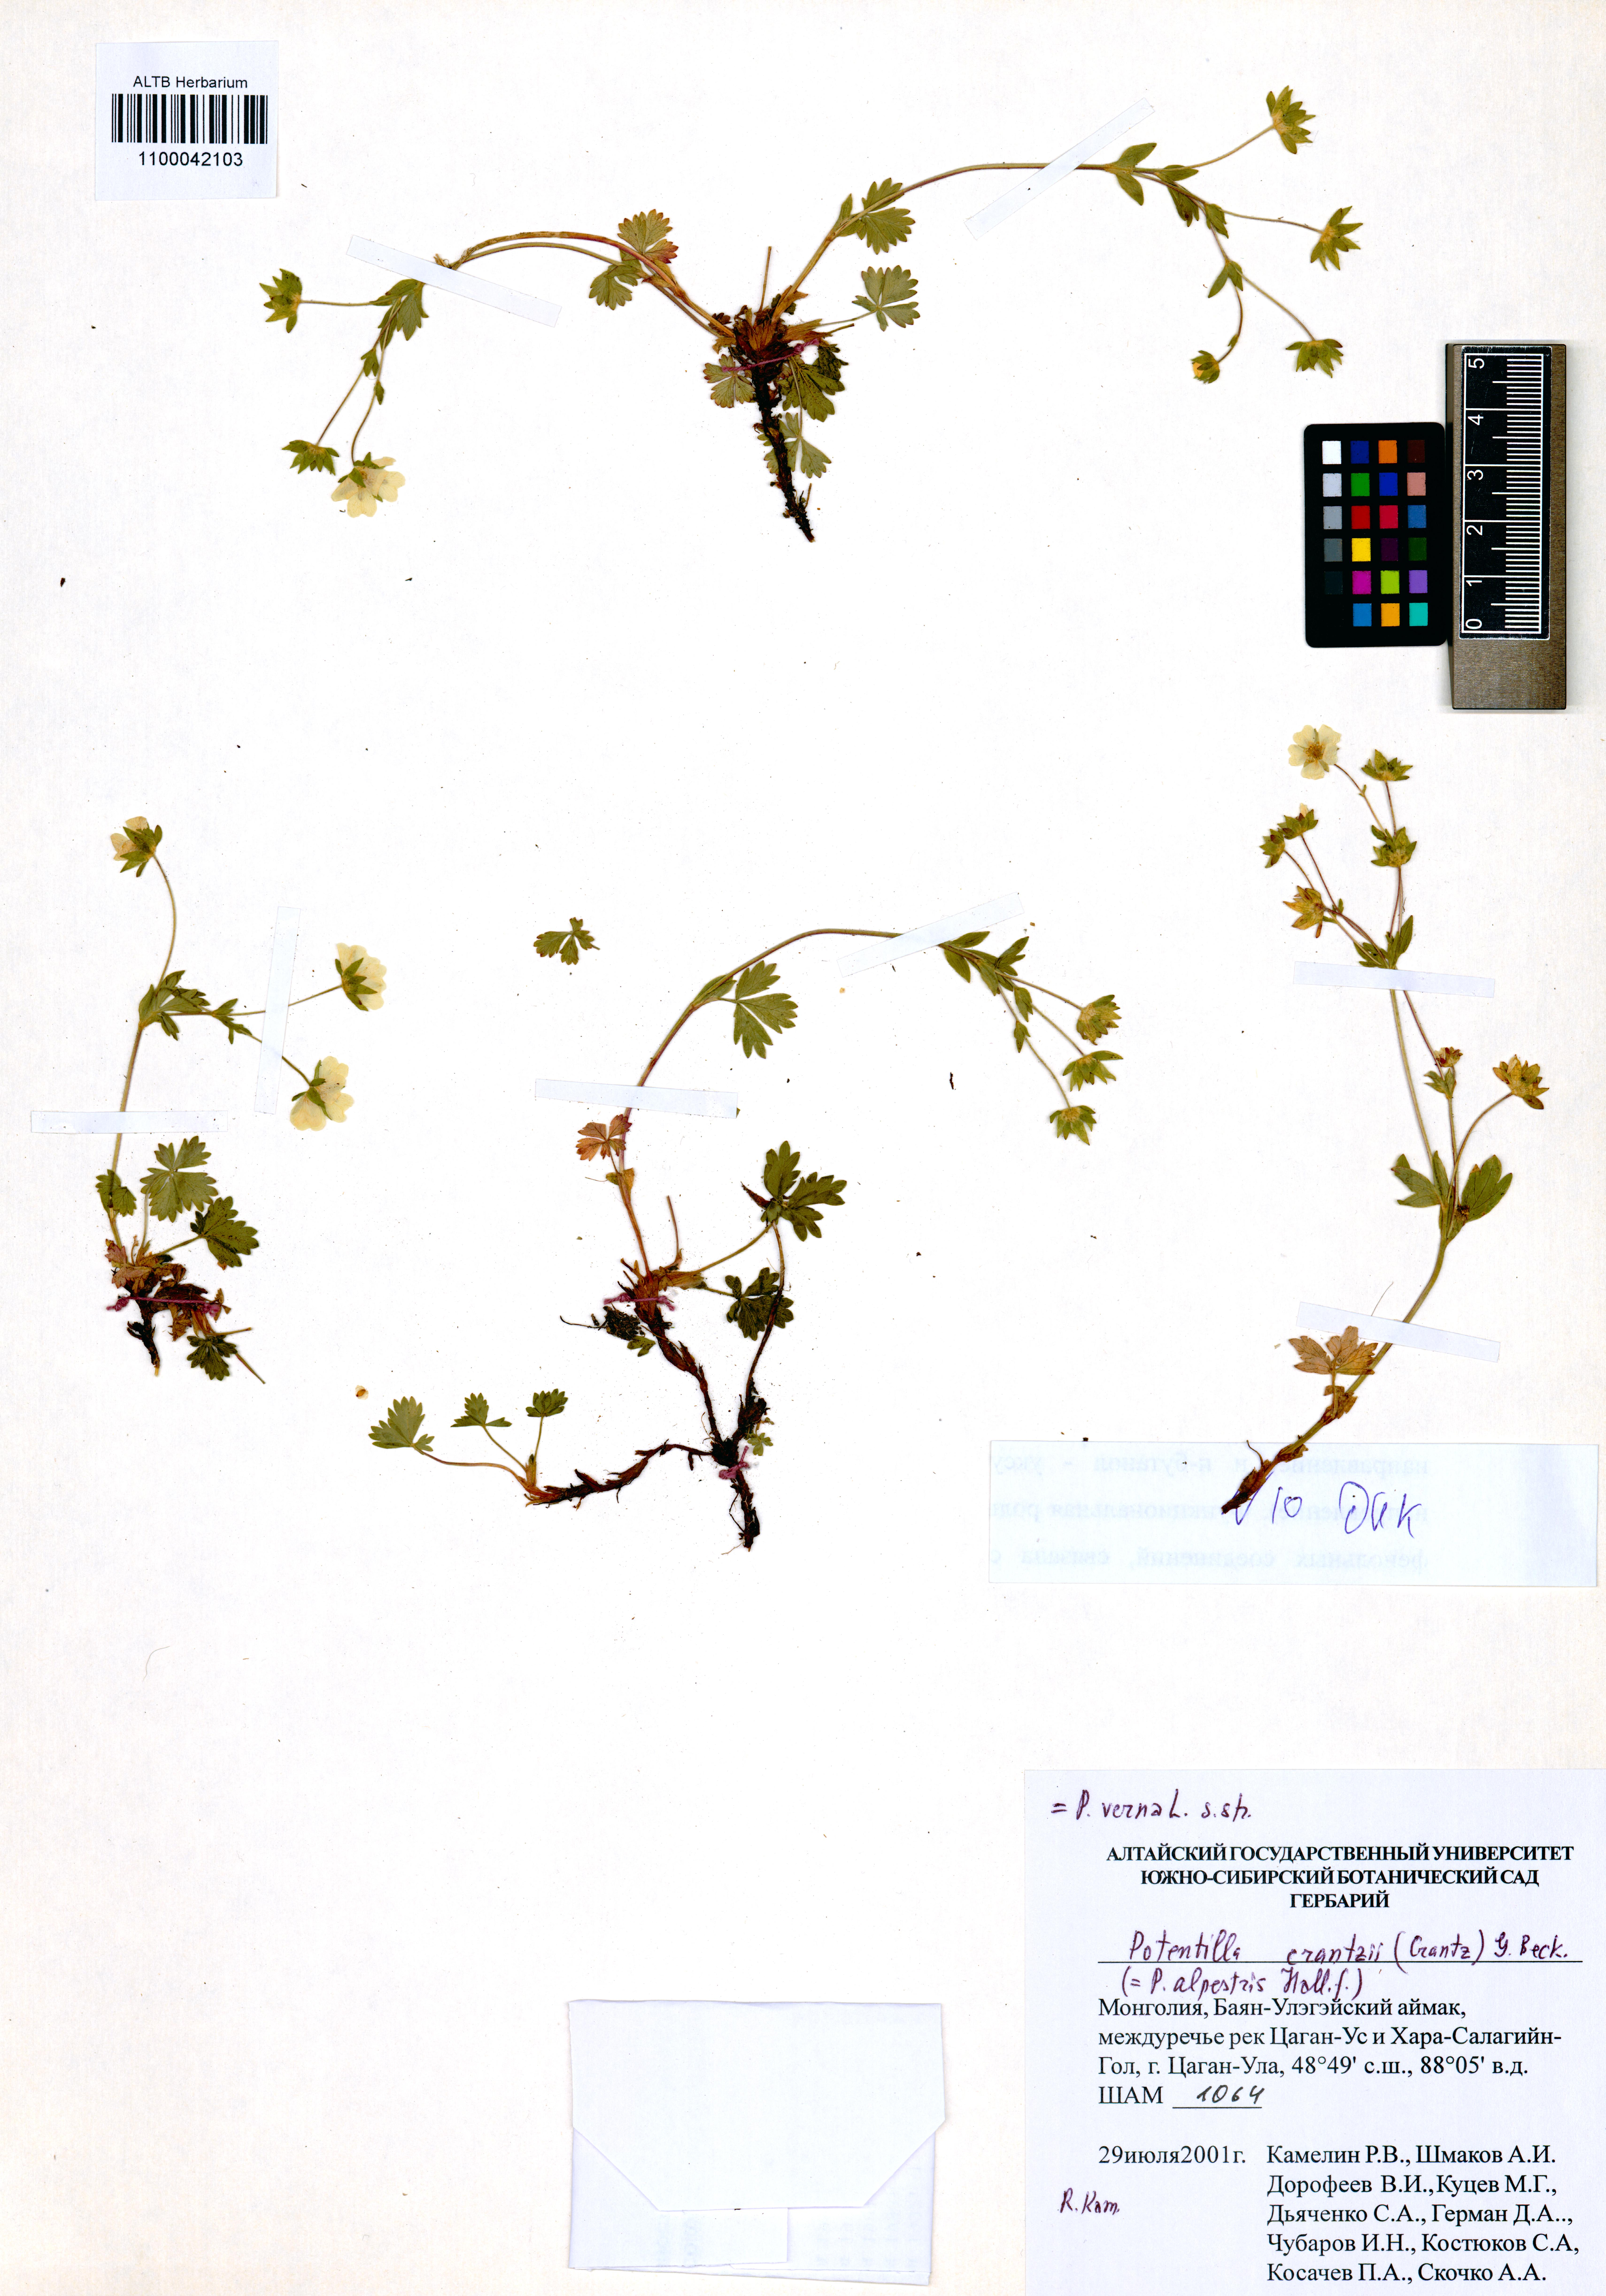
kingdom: Plantae
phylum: Tracheophyta
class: Magnoliopsida
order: Rosales
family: Rosaceae
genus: Potentilla
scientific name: Potentilla crantzii
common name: Alpine cinquefoil
